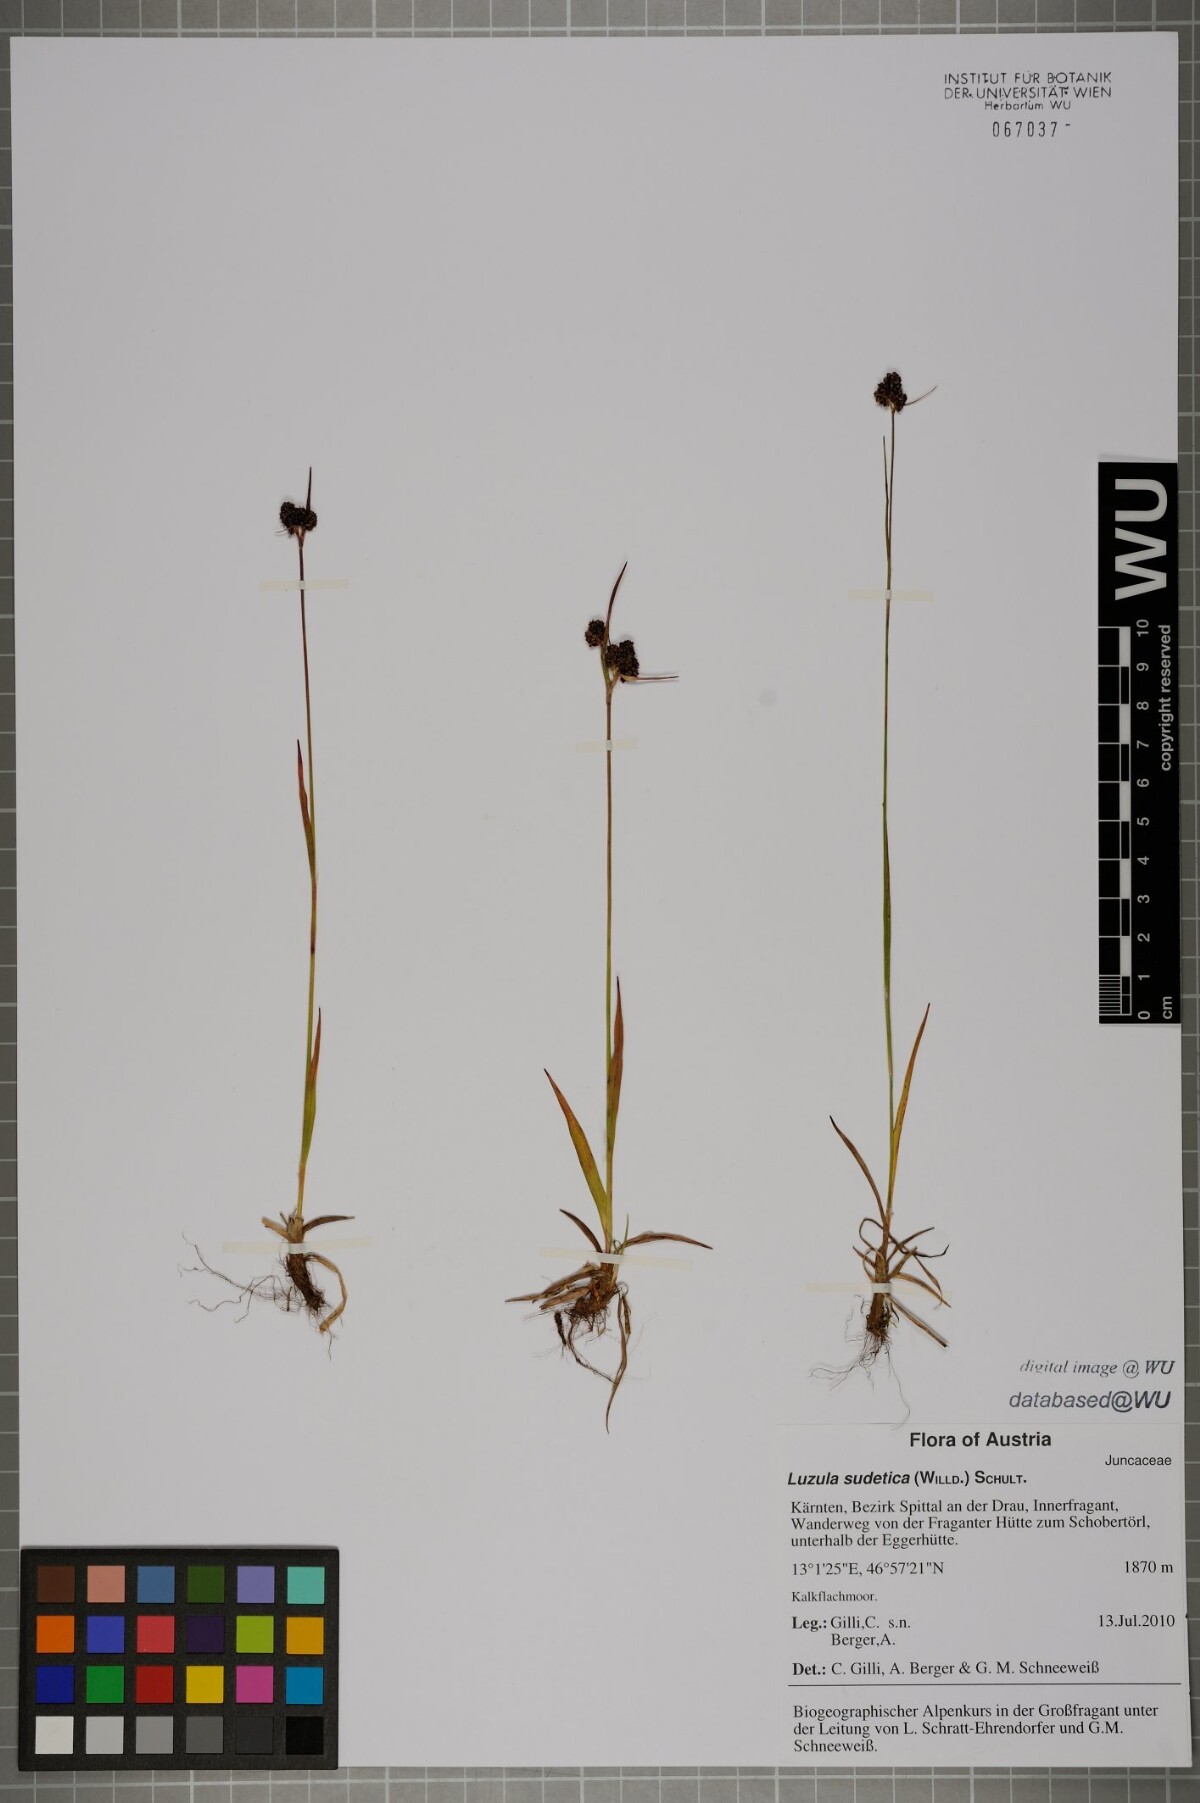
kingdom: Plantae
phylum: Tracheophyta
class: Liliopsida
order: Poales
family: Juncaceae
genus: Luzula
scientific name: Luzula sudetica
